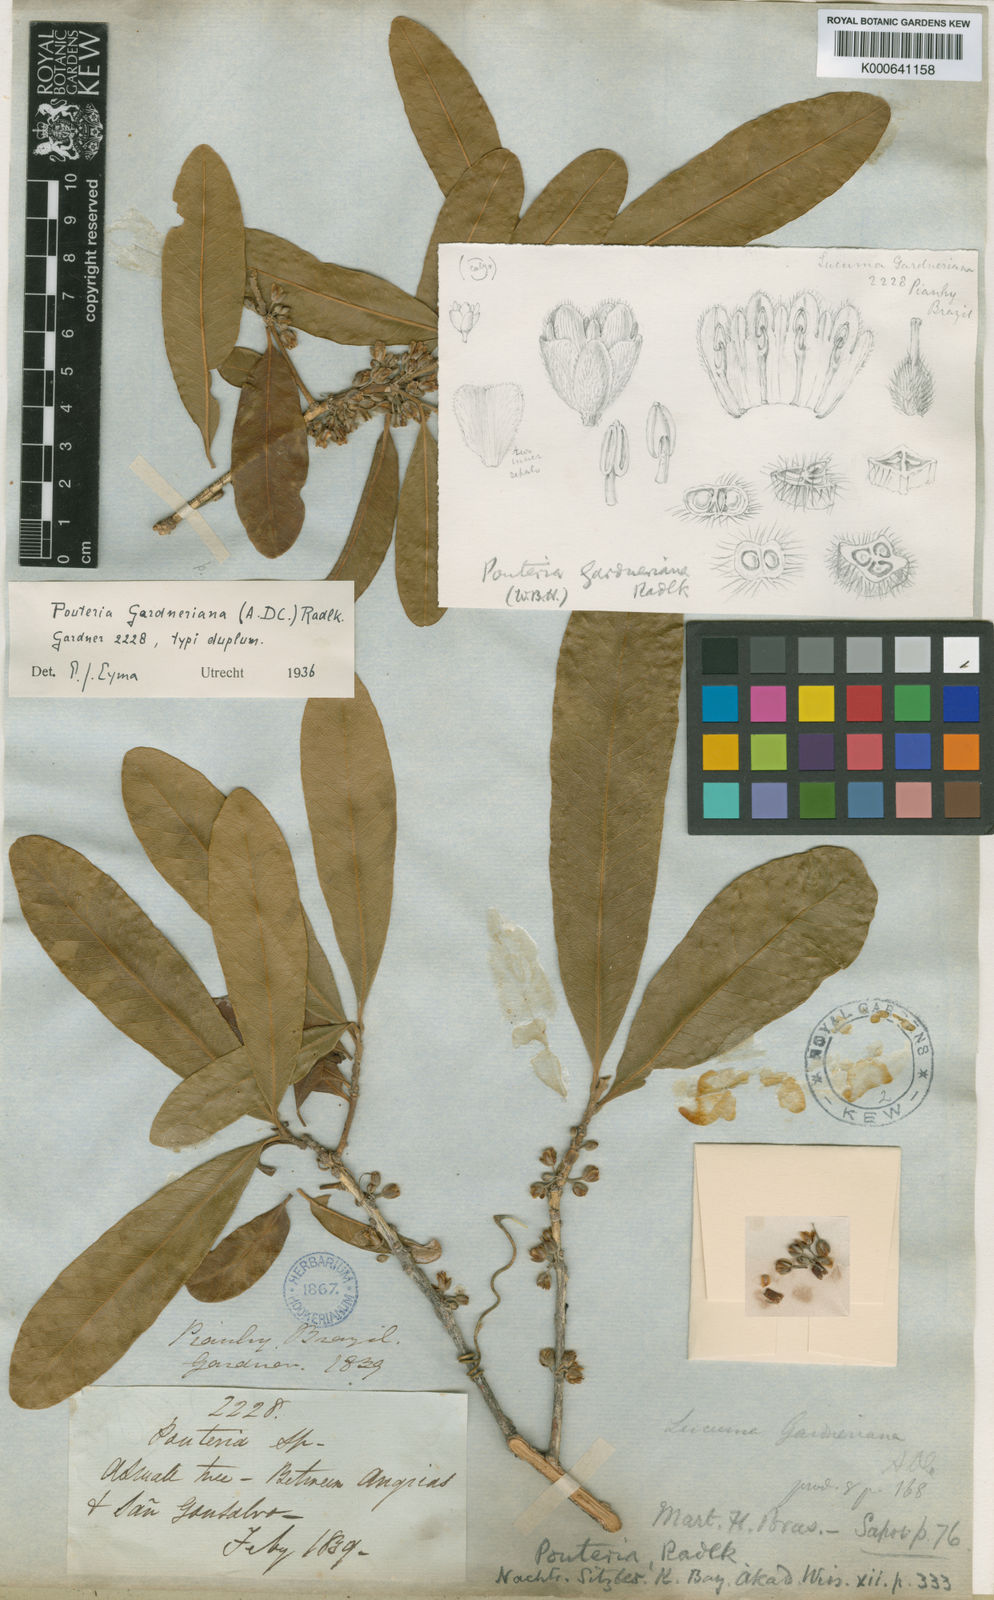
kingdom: Plantae
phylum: Tracheophyta
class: Magnoliopsida
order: Ericales
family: Sapotaceae
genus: Pouteria
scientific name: Pouteria gardneriana
